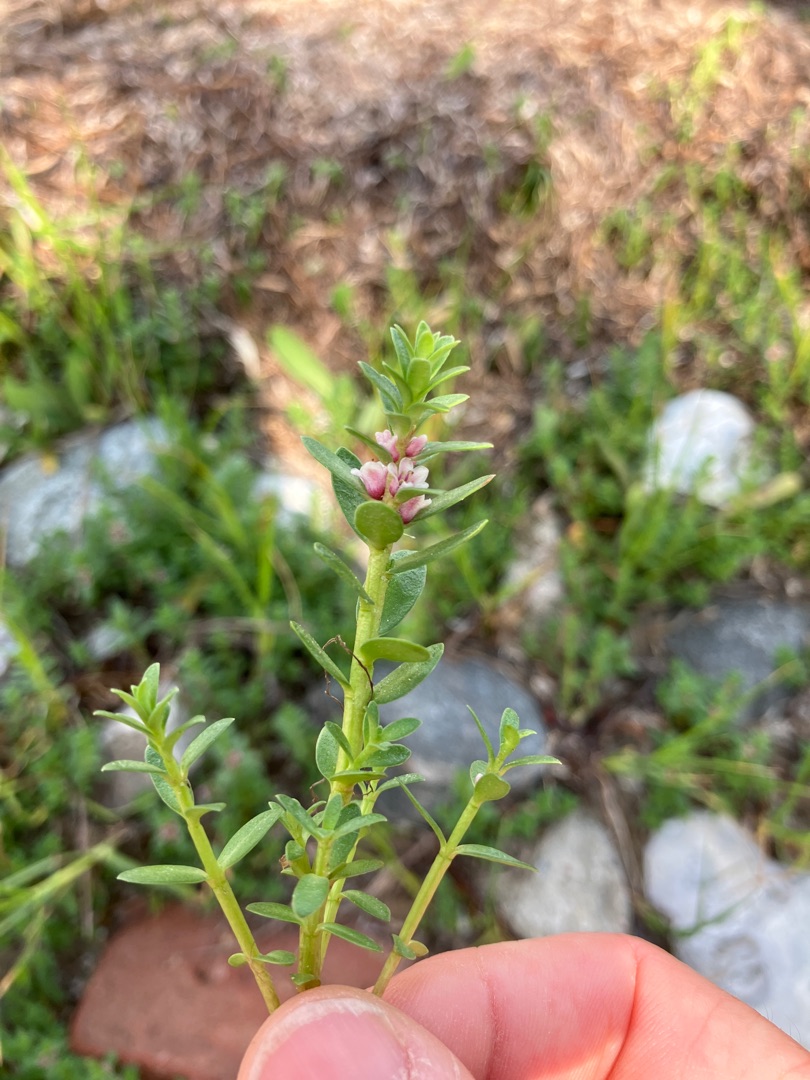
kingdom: Plantae
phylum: Tracheophyta
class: Magnoliopsida
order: Ericales
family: Primulaceae
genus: Lysimachia
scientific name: Lysimachia maritima
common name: Sandkryb
